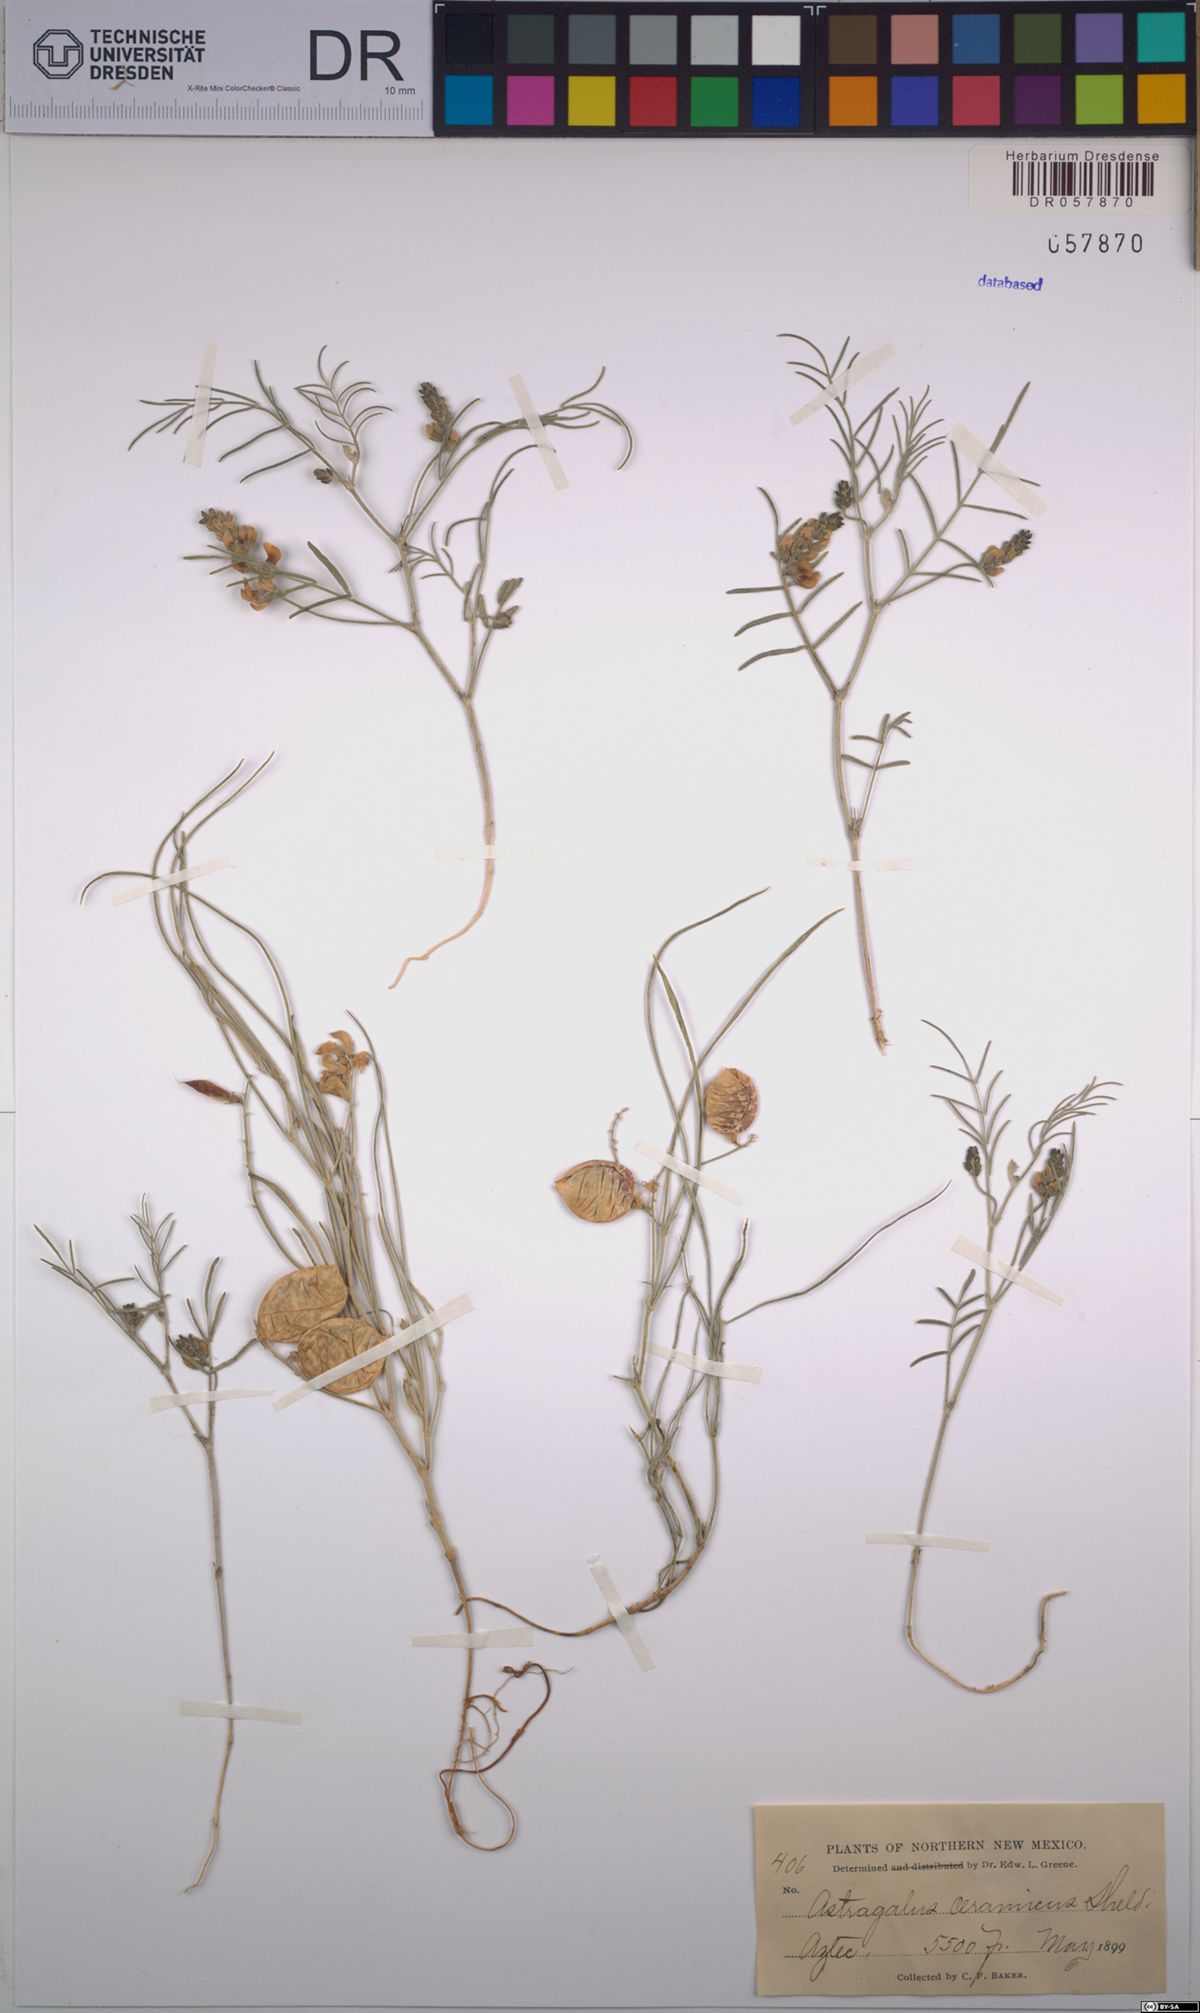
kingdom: Plantae
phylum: Tracheophyta
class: Magnoliopsida
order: Fabales
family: Fabaceae
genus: Astragalus
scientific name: Astragalus ceramicus
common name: Painted milk-vetch
